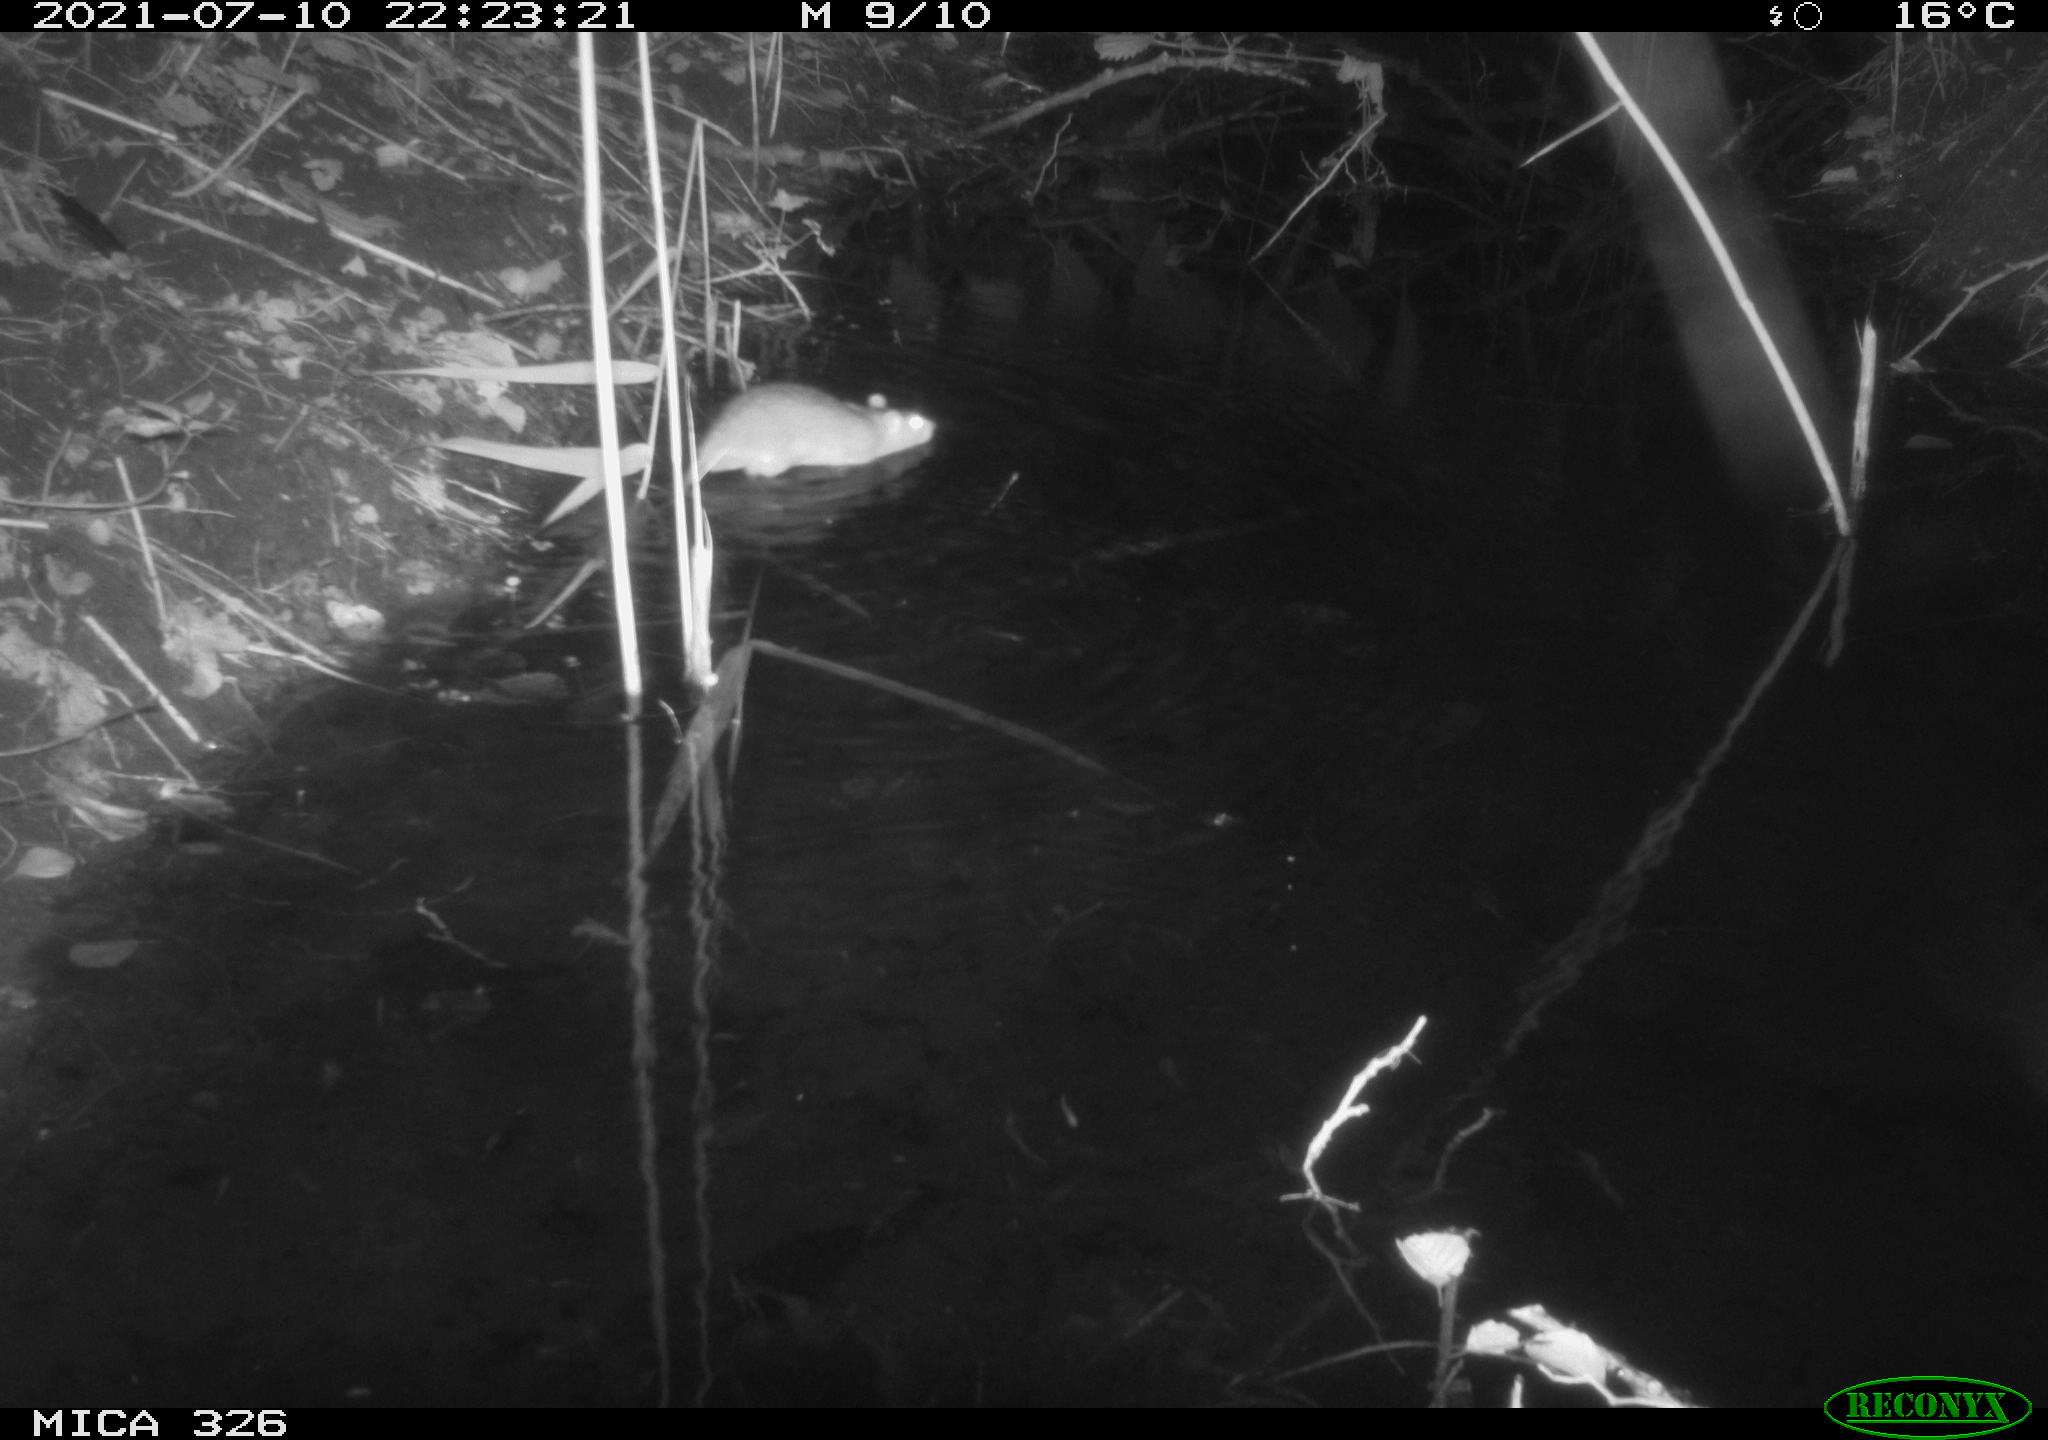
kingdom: Animalia
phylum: Chordata
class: Mammalia
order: Rodentia
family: Muridae
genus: Rattus
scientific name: Rattus norvegicus
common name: Brown rat
